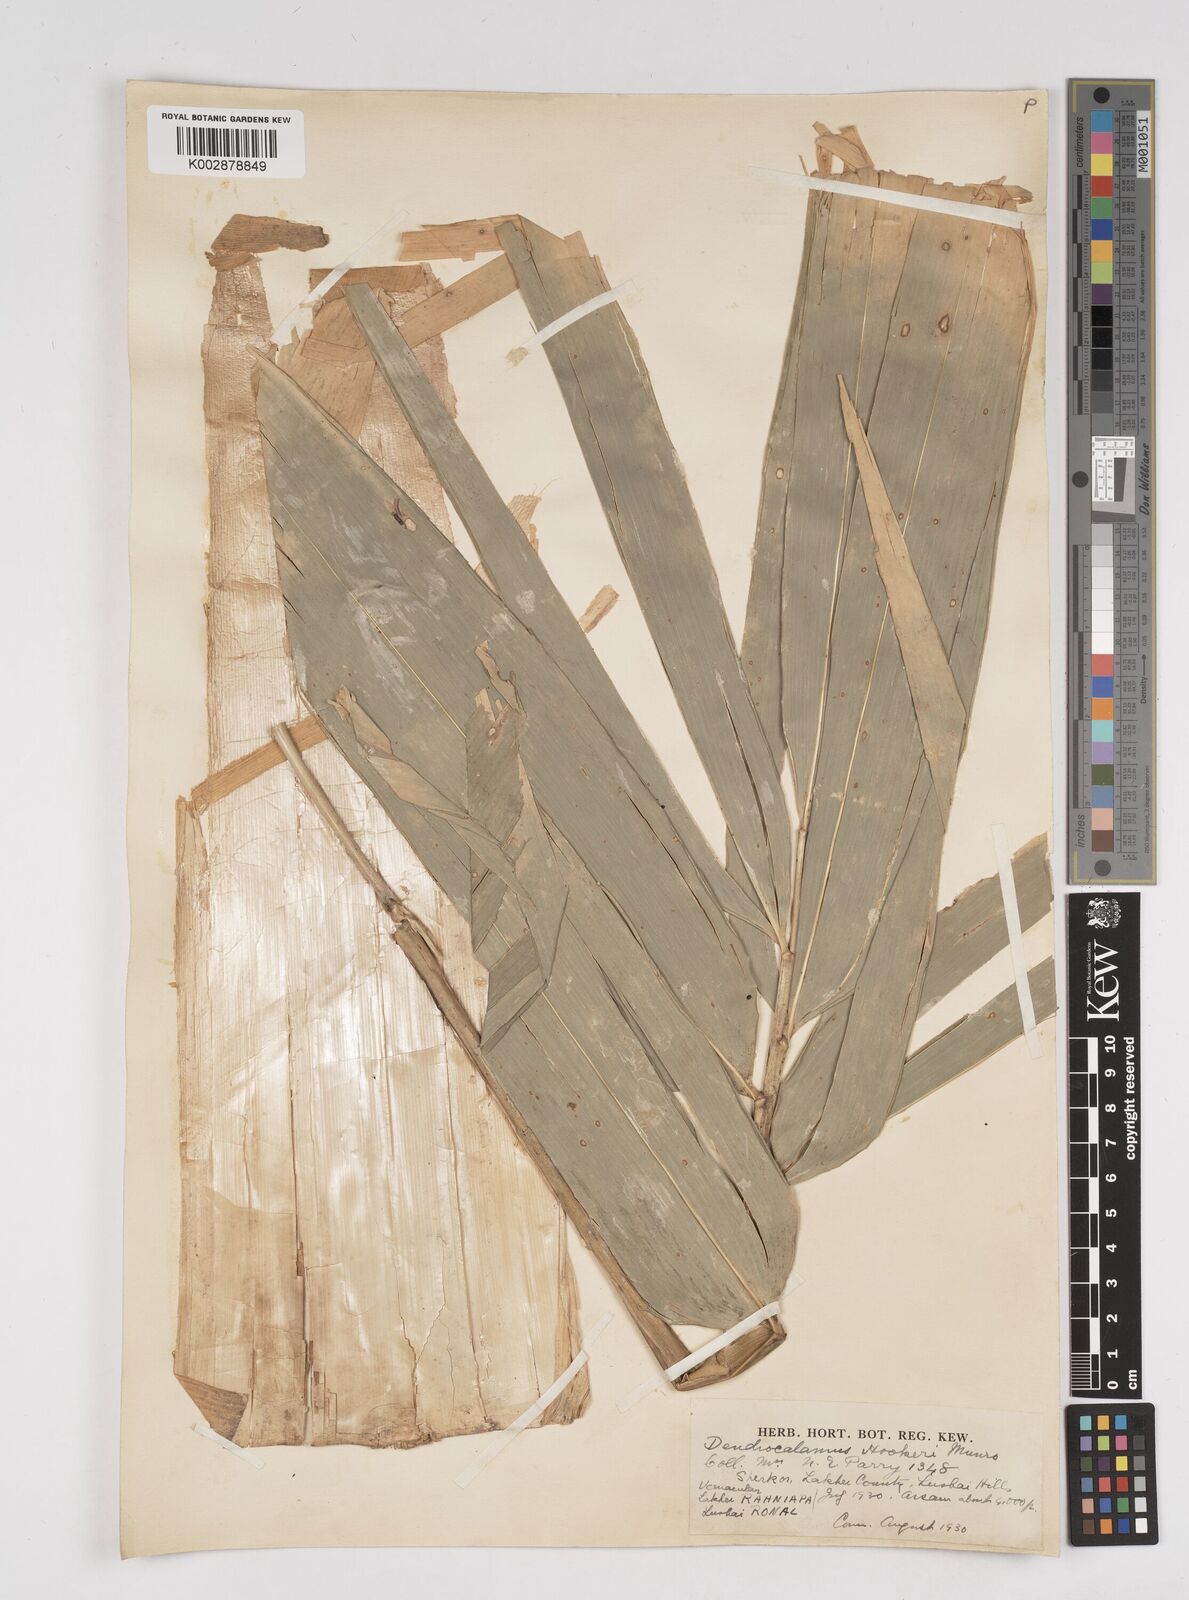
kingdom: Plantae
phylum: Tracheophyta
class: Liliopsida
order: Poales
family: Poaceae
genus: Dendrocalamus
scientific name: Dendrocalamus hookeri
